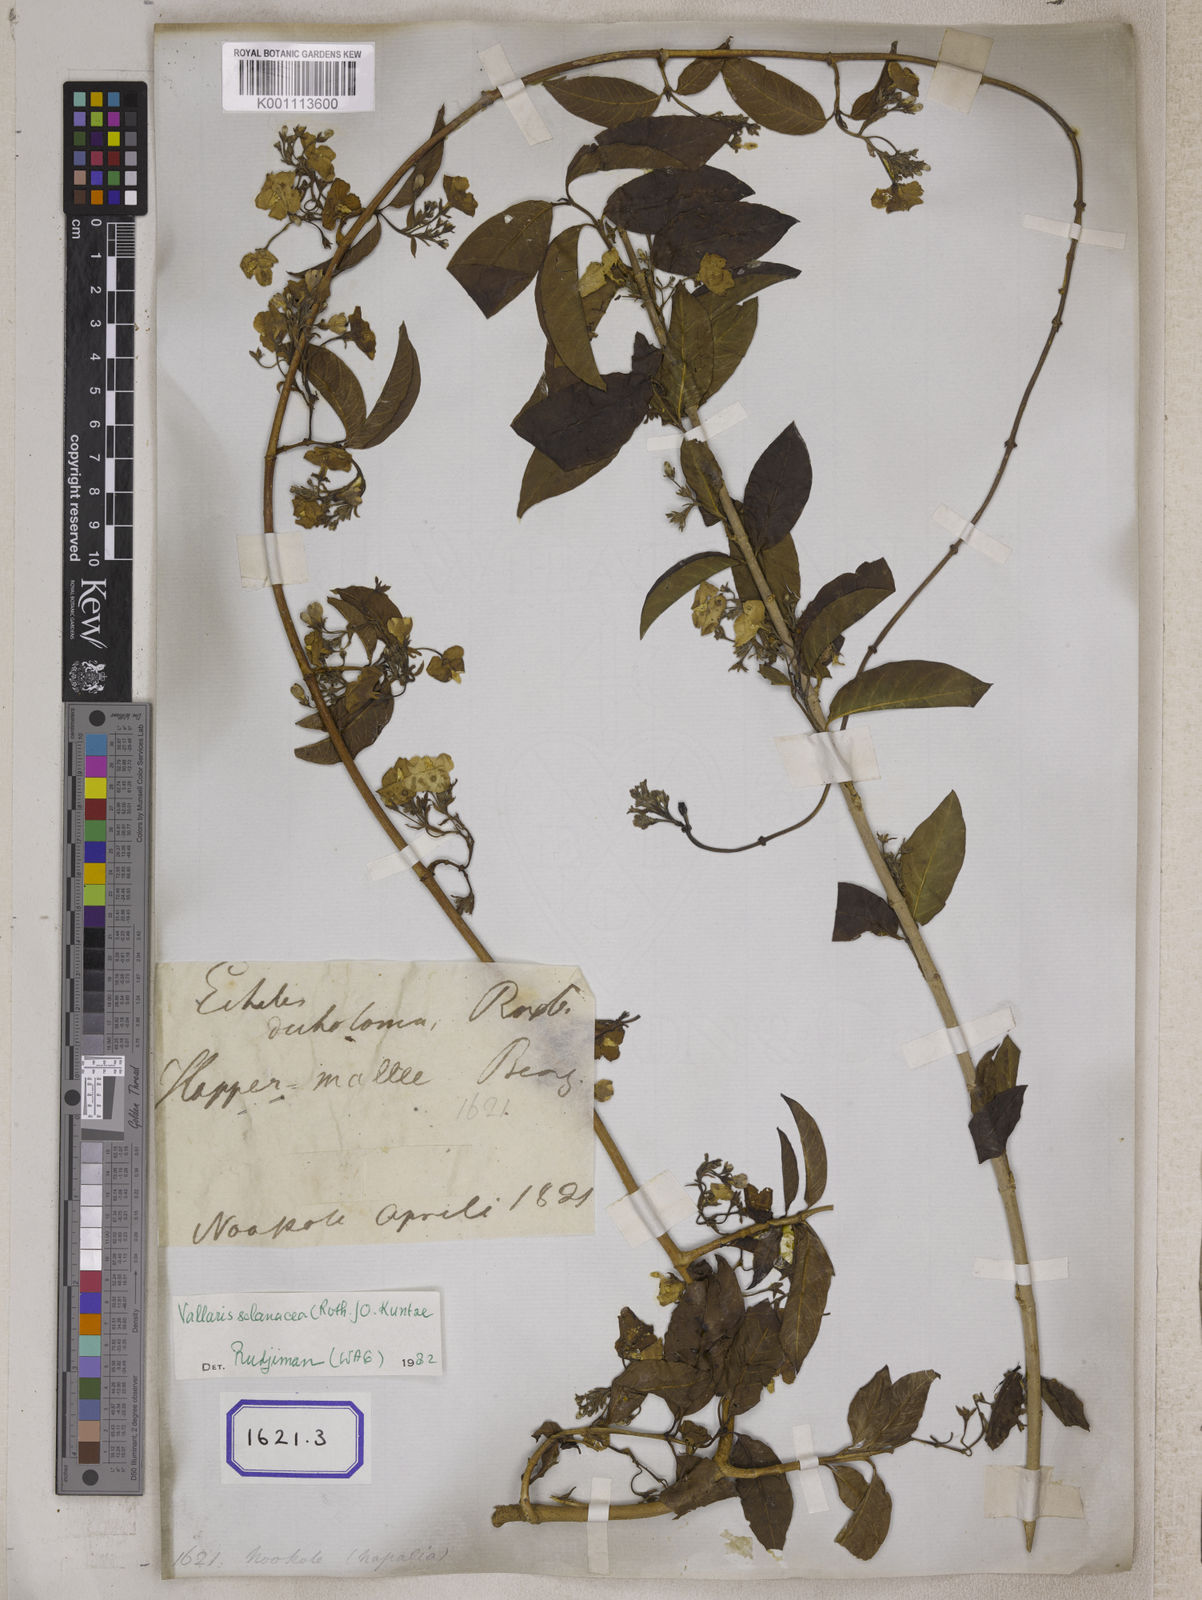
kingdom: Plantae
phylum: Tracheophyta
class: Magnoliopsida
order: Gentianales
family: Apocynaceae
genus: Vallaris
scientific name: Vallaris glabra
